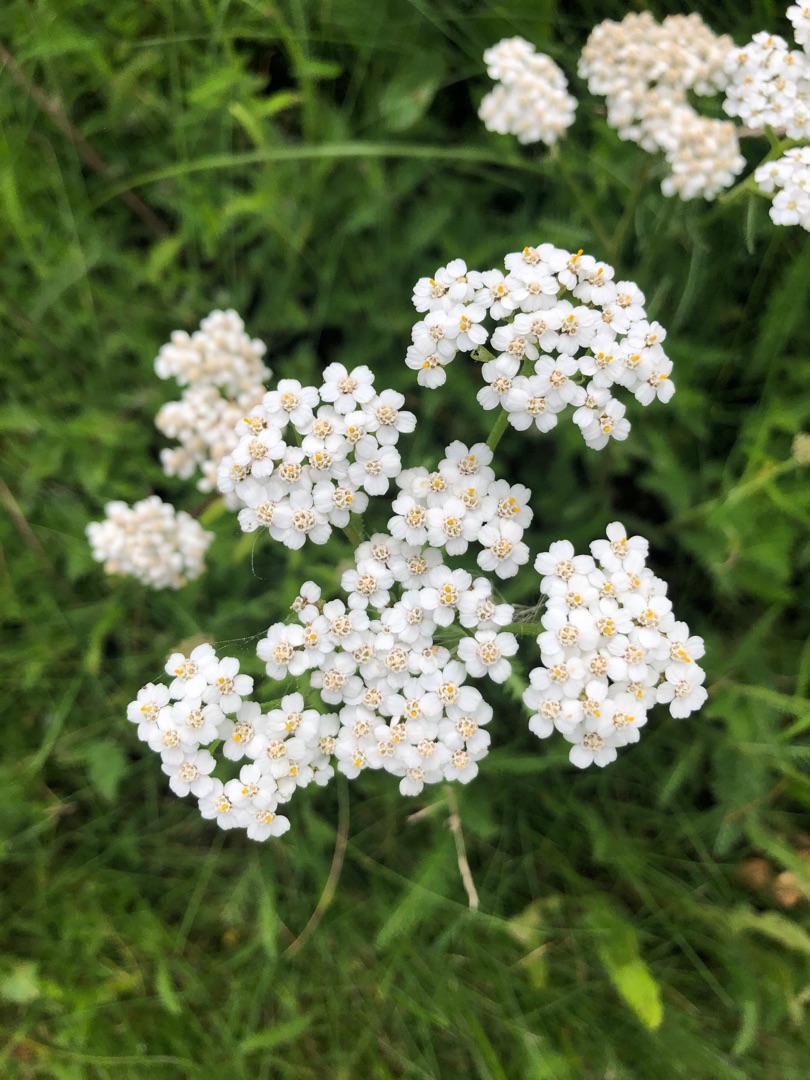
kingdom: Plantae
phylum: Tracheophyta
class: Magnoliopsida
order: Asterales
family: Asteraceae
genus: Achillea
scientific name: Achillea millefolium
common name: Almindelig røllike
